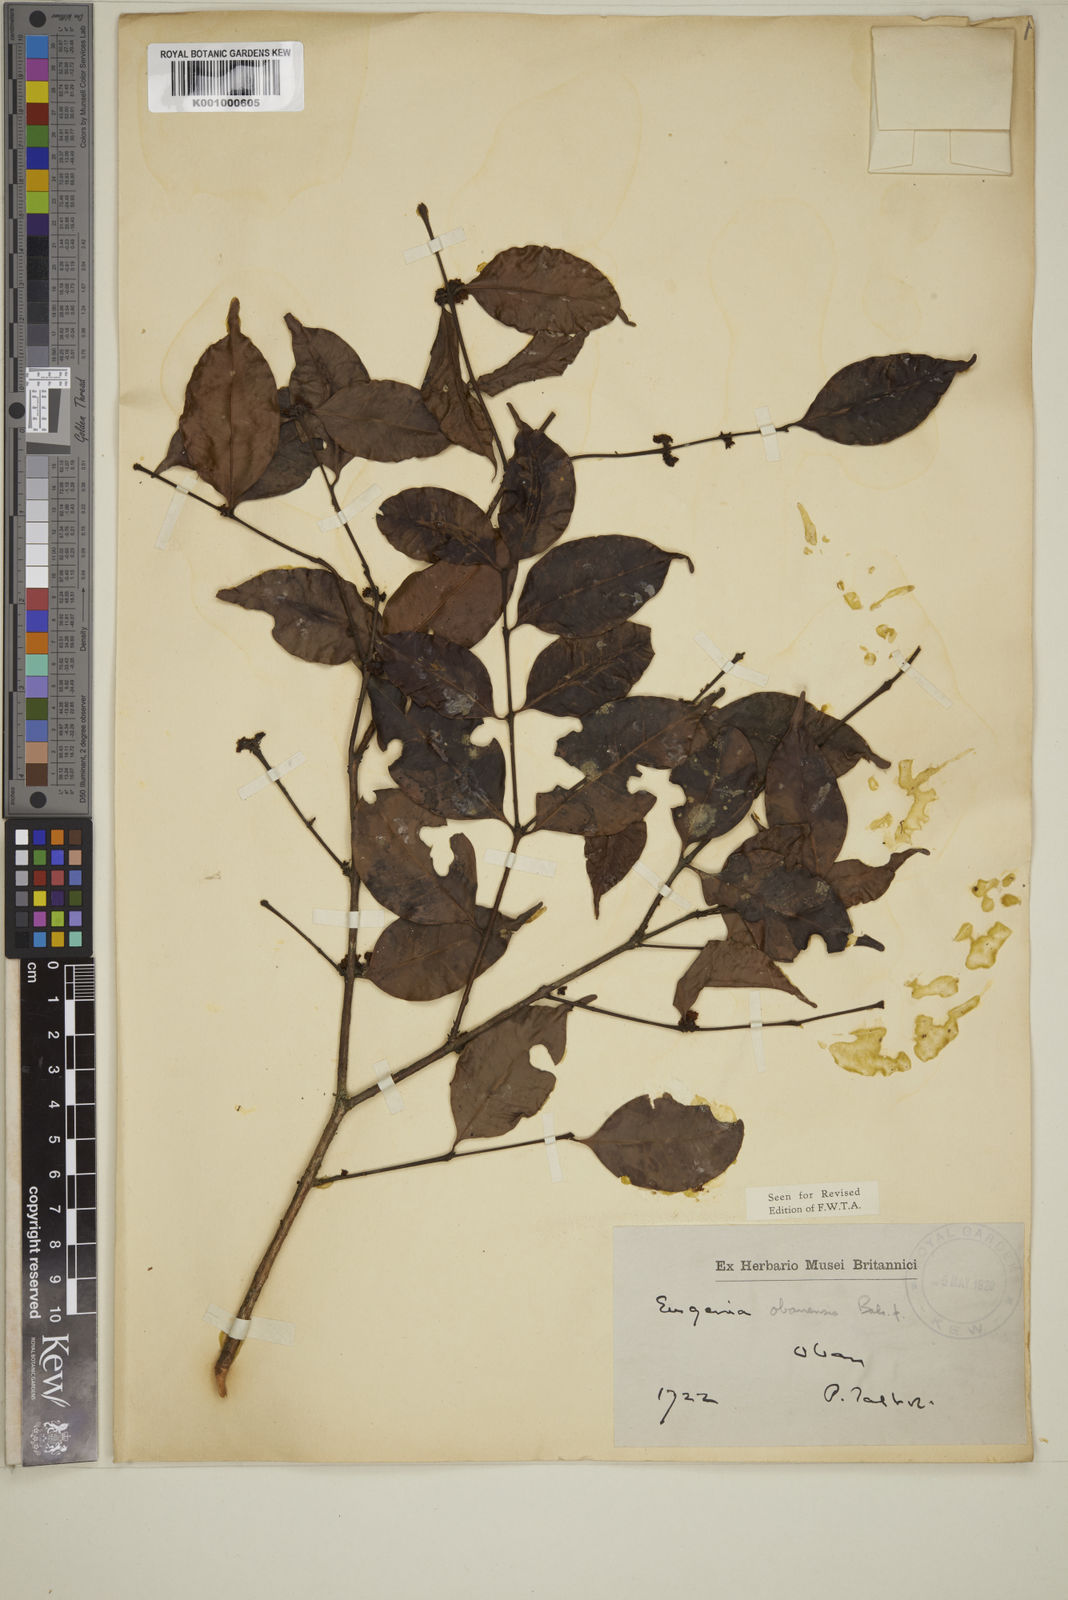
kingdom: Plantae
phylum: Tracheophyta
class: Magnoliopsida
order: Myrtales
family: Myrtaceae
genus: Eugenia
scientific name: Eugenia obanensis
